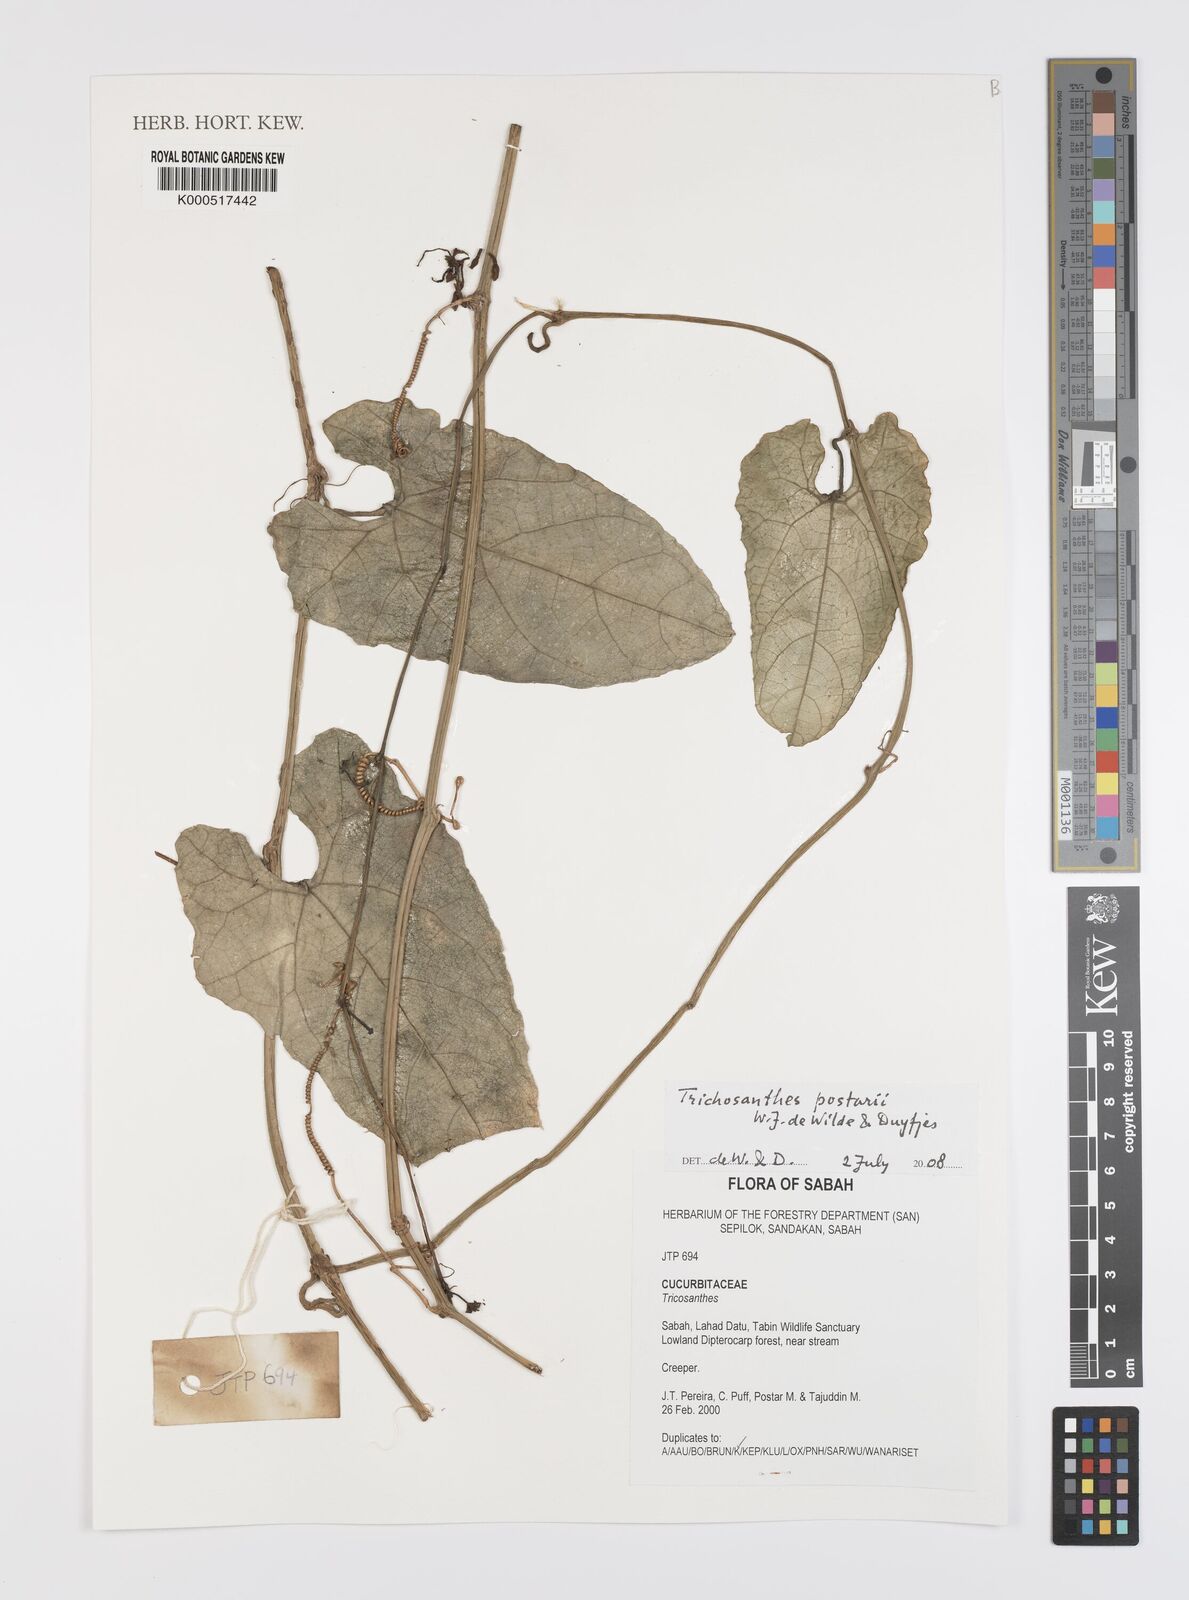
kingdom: Plantae
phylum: Tracheophyta
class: Magnoliopsida
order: Cucurbitales
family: Cucurbitaceae
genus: Trichosanthes
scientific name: Trichosanthes postarii
